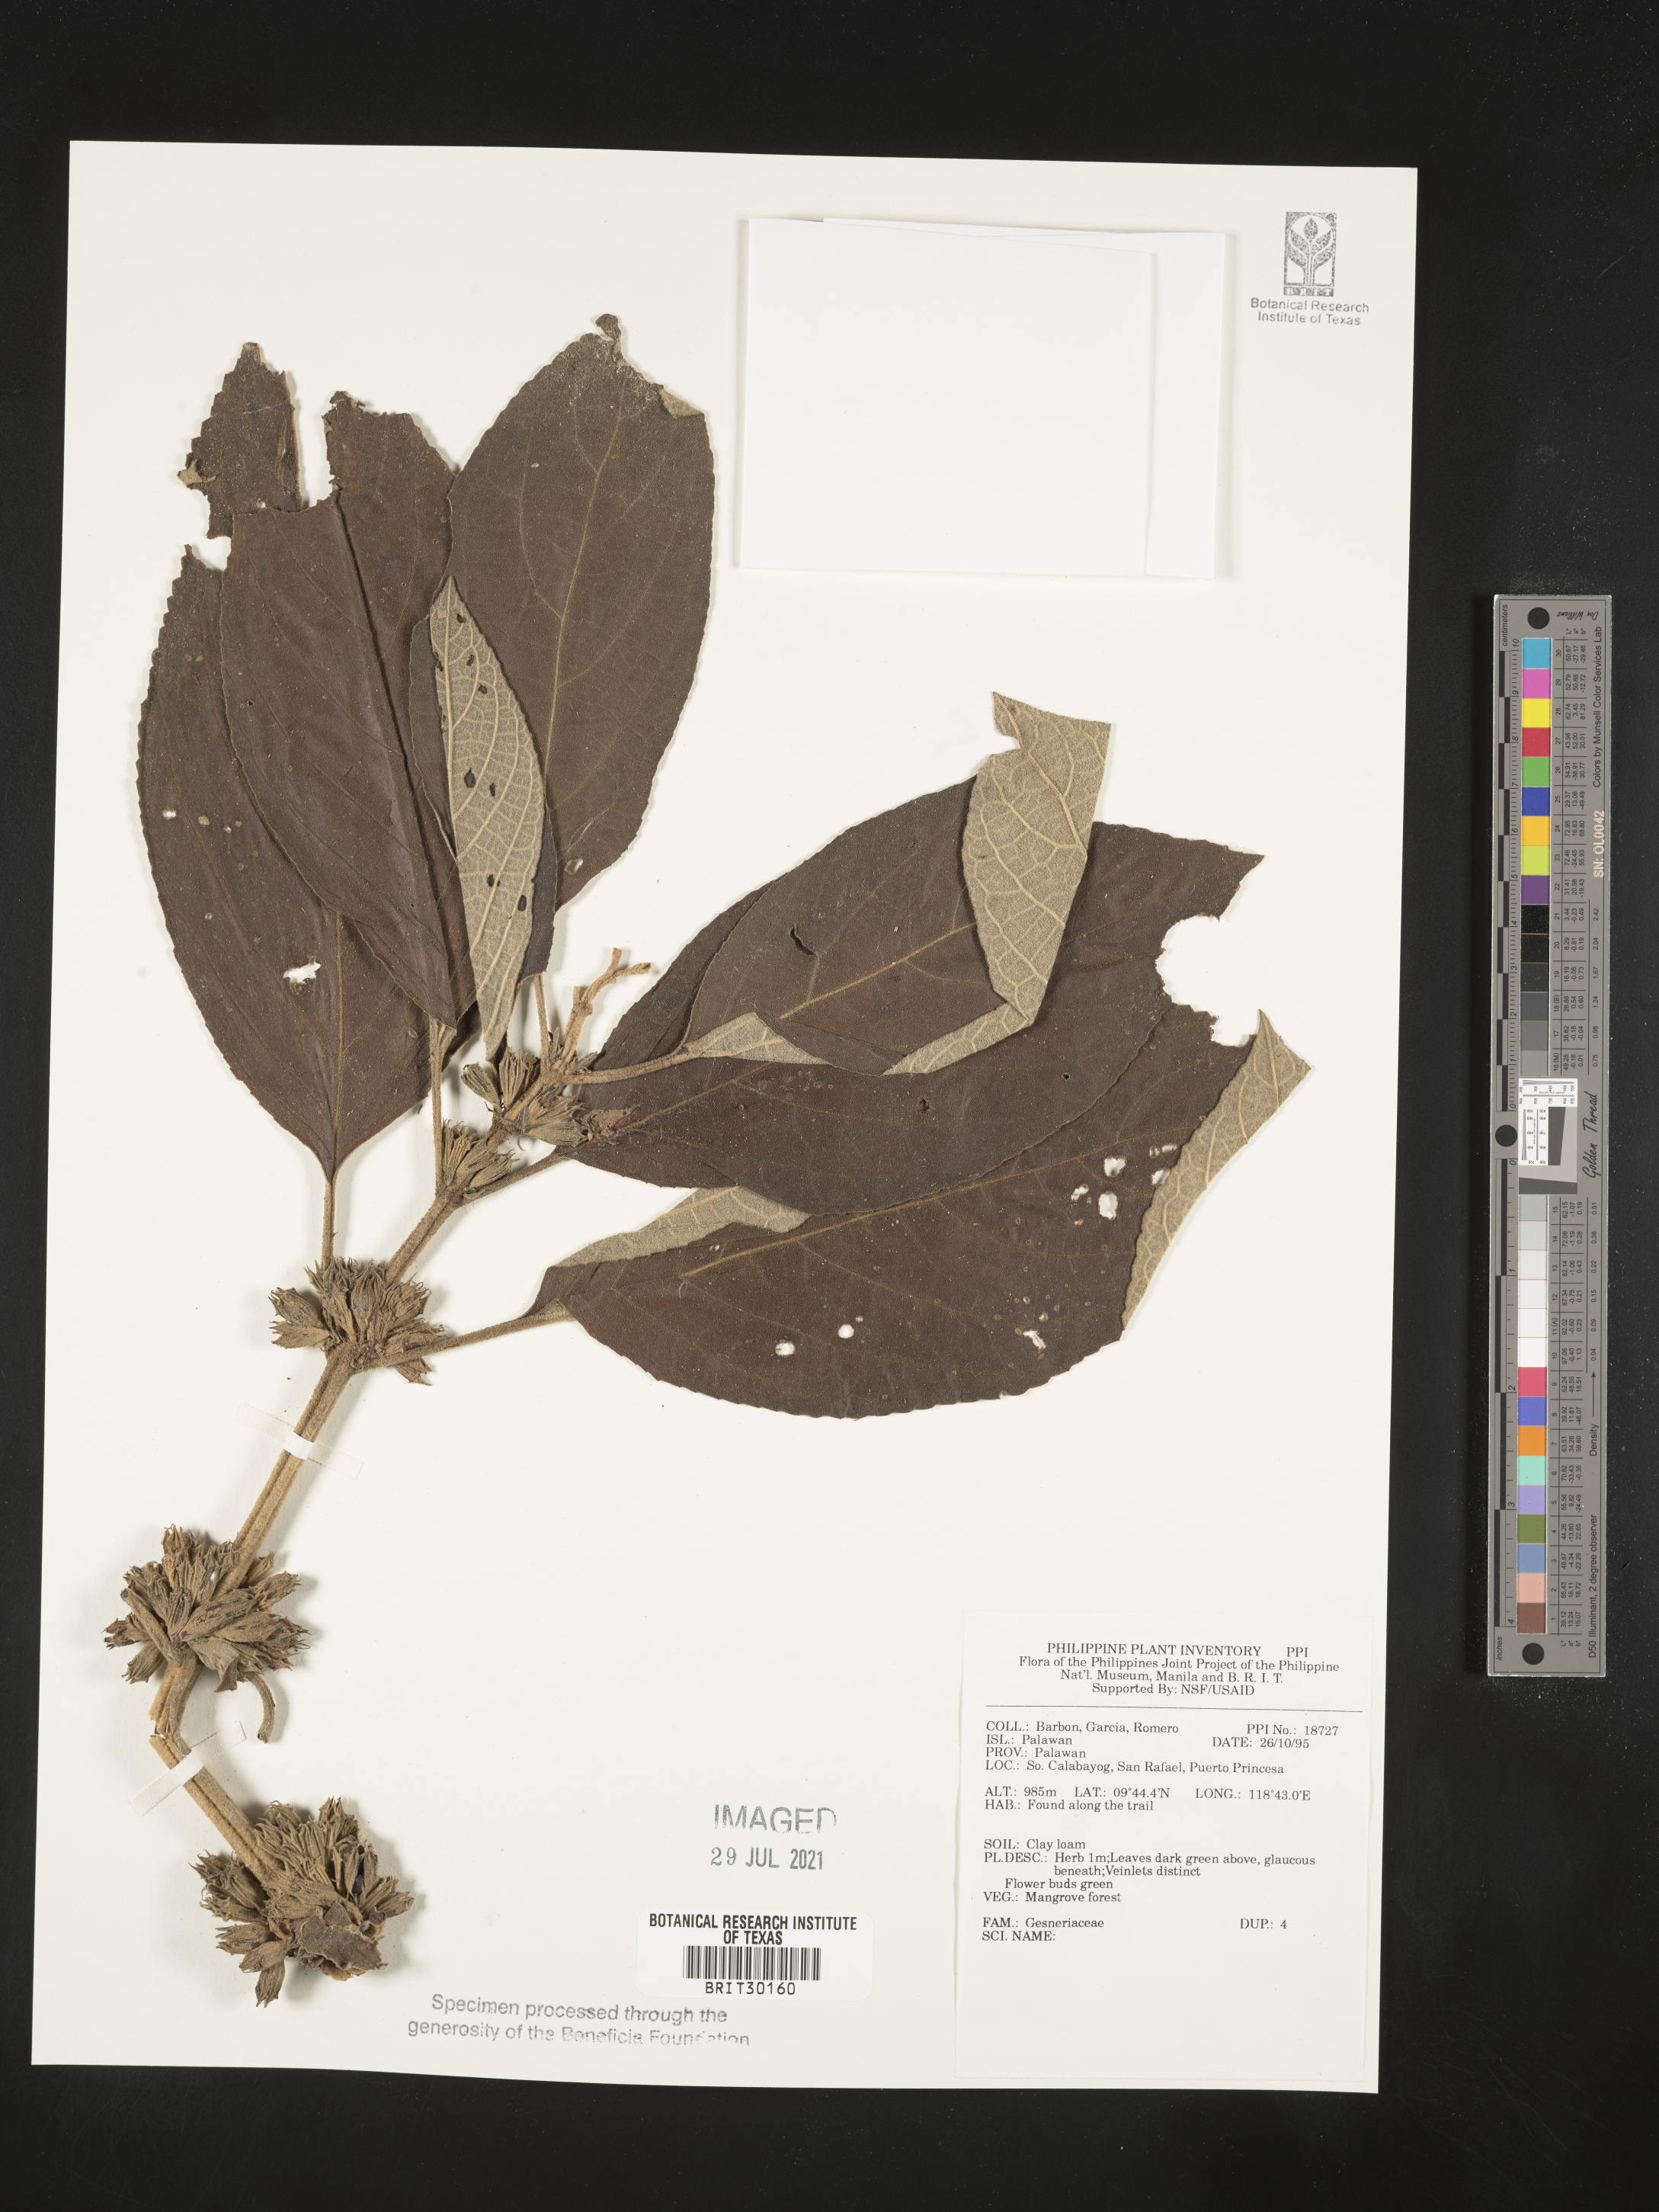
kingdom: Plantae
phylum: Tracheophyta
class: Magnoliopsida
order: Lamiales
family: Gesneriaceae
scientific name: Gesneriaceae
